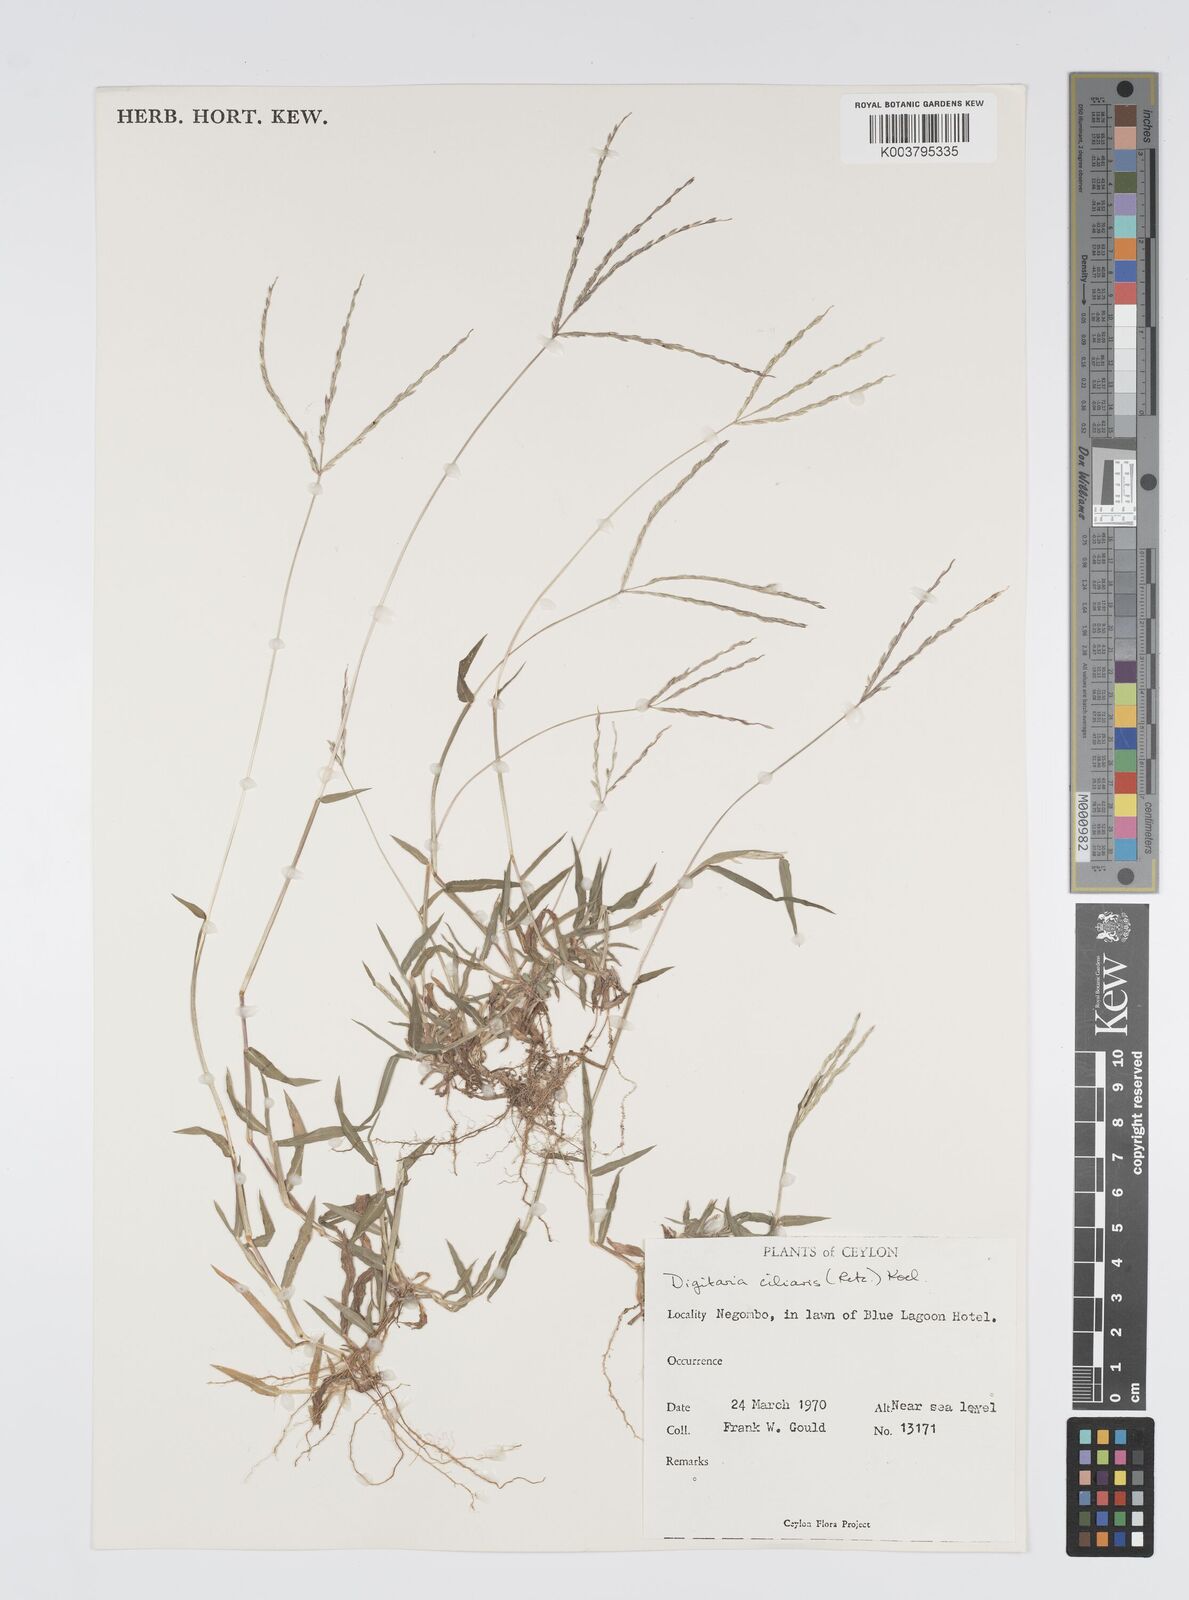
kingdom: Plantae
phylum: Tracheophyta
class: Liliopsida
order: Poales
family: Poaceae
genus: Digitaria
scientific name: Digitaria ciliaris
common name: Tropical finger-grass
